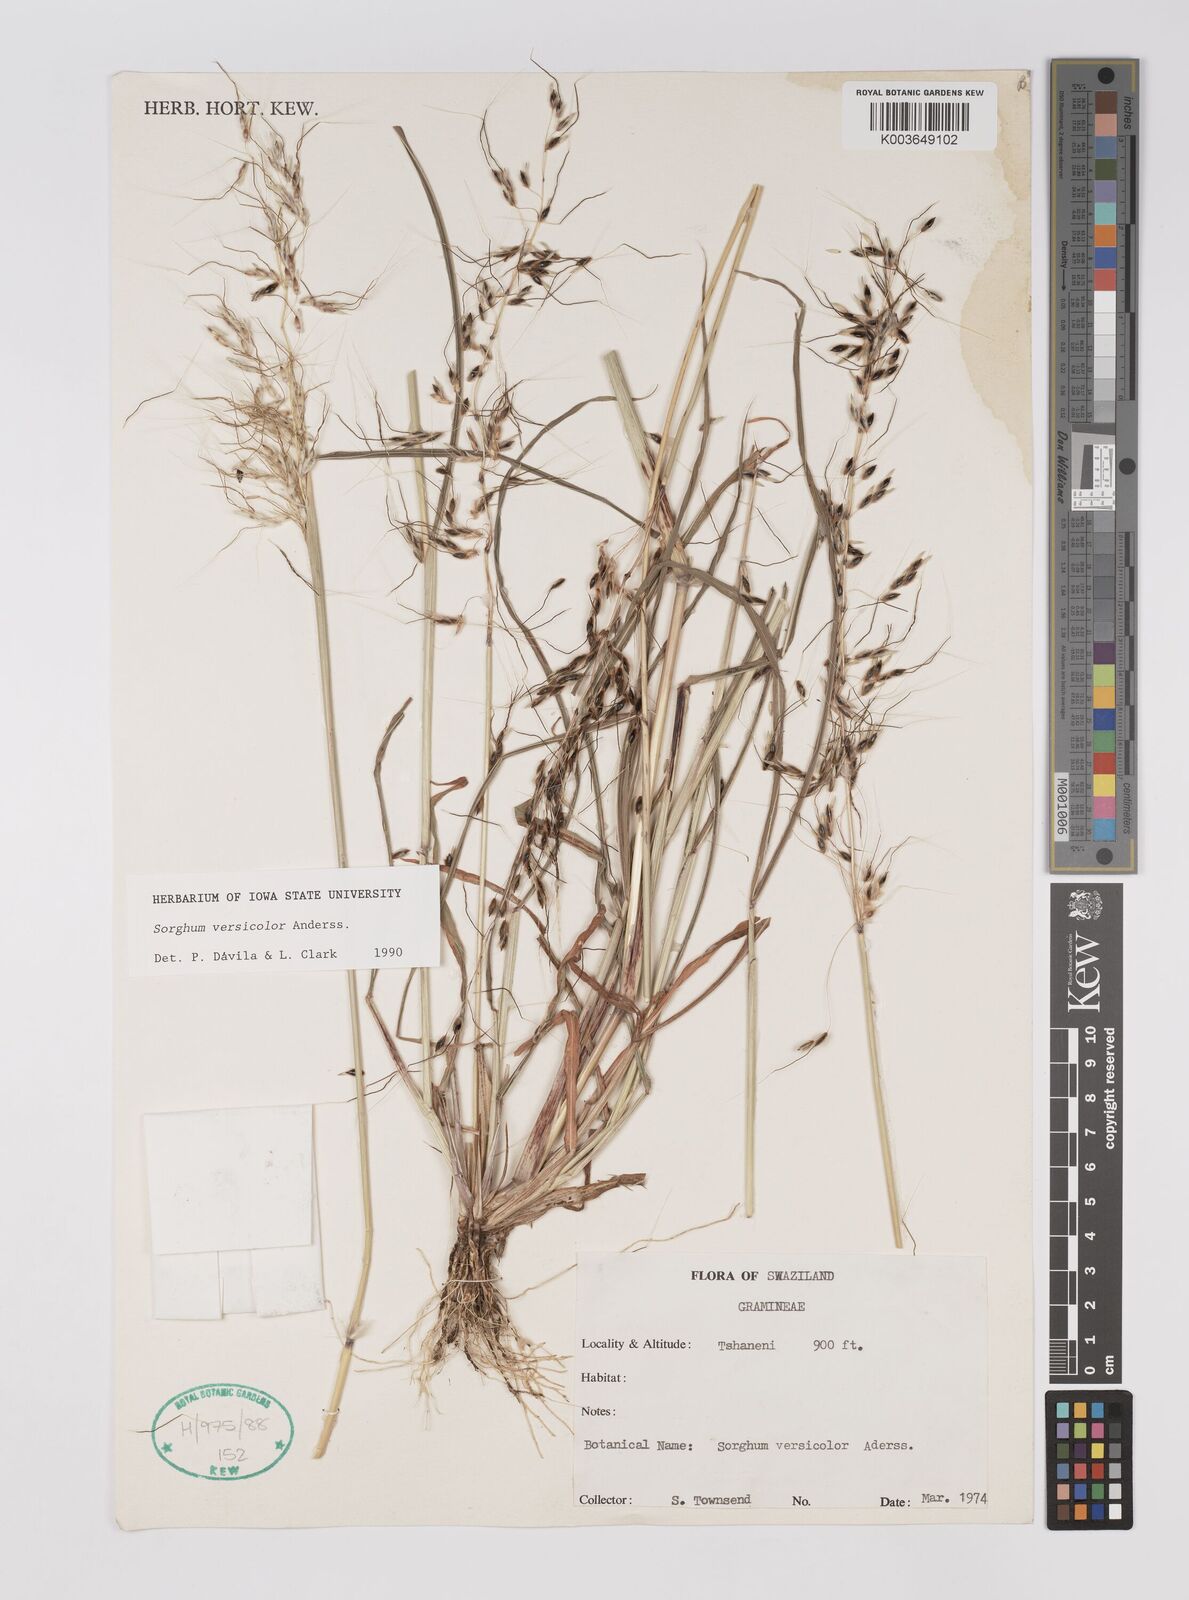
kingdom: Plantae
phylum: Tracheophyta
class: Liliopsida
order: Poales
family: Poaceae
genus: Sarga
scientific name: Sarga versicolor
